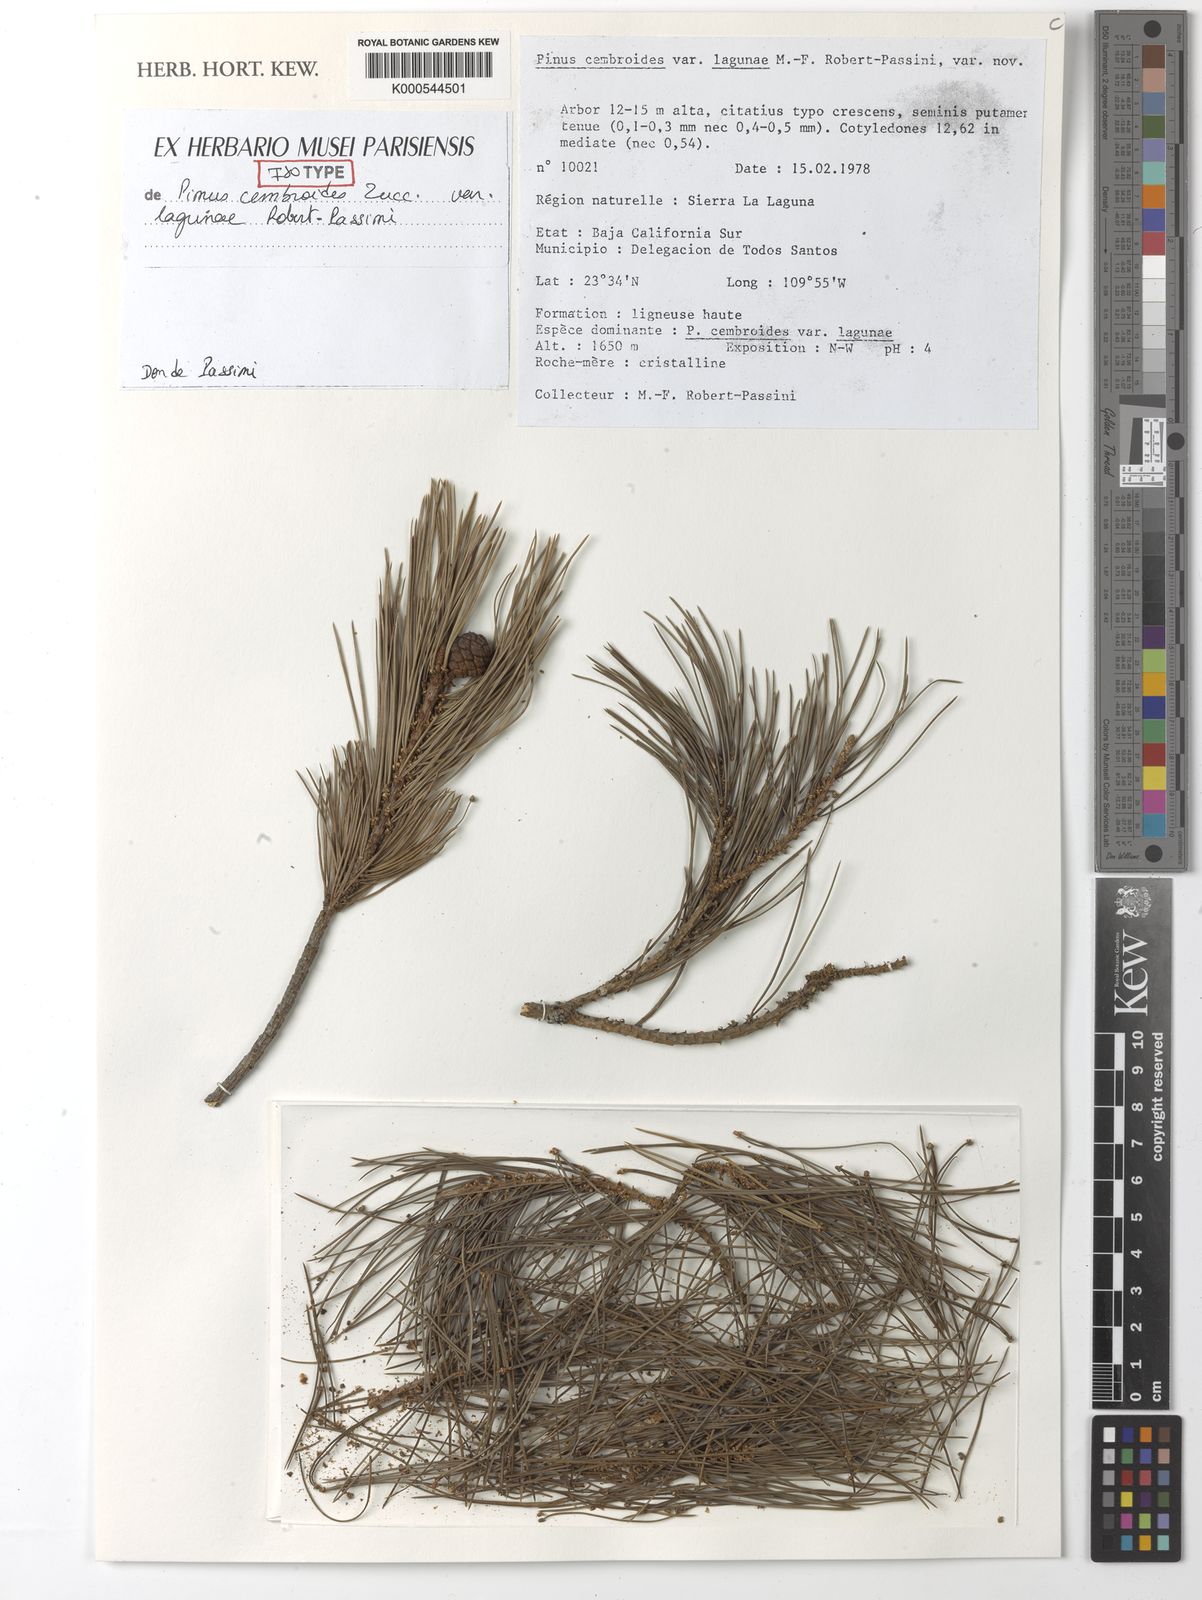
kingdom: Plantae
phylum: Tracheophyta
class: Pinopsida
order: Pinales
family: Pinaceae
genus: Pinus
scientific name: Pinus cembroides
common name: Mexican nut pine
